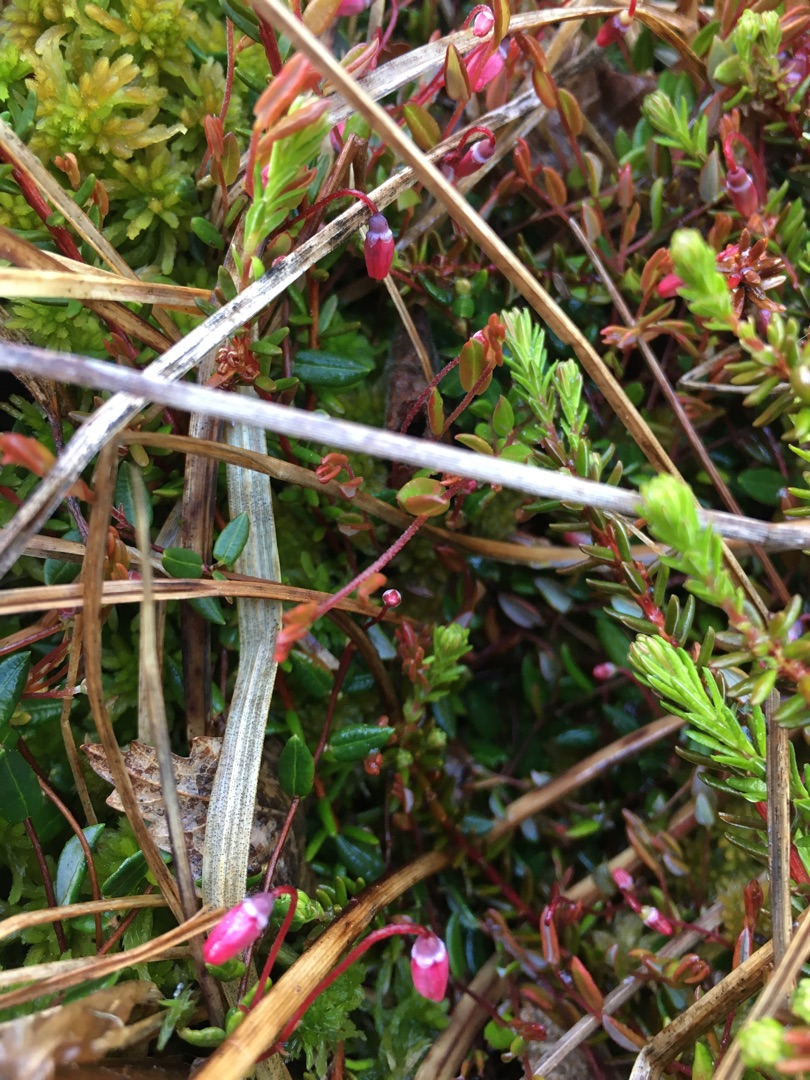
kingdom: Plantae
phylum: Tracheophyta
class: Magnoliopsida
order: Ericales
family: Ericaceae
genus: Vaccinium
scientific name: Vaccinium oxycoccos
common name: Tranebær
